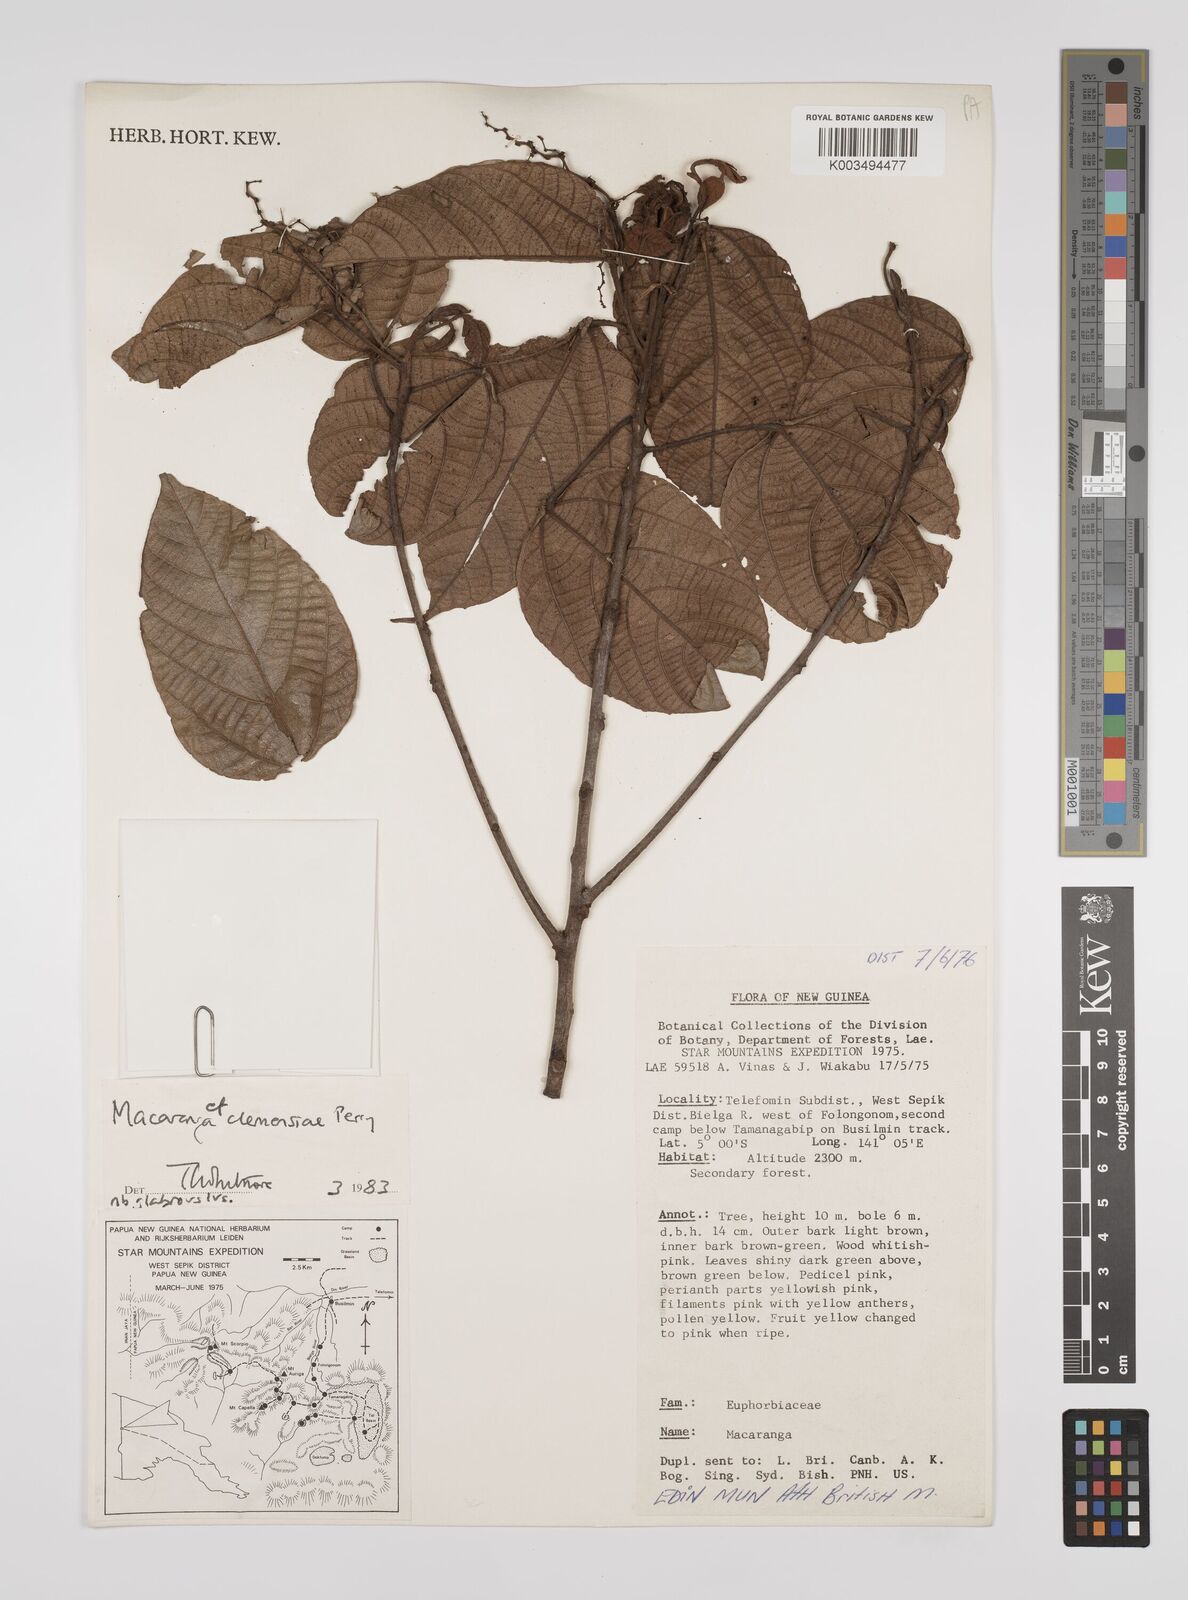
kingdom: Plantae
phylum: Tracheophyta
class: Magnoliopsida
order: Malpighiales
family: Euphorbiaceae
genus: Macaranga
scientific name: Macaranga clemensiae
